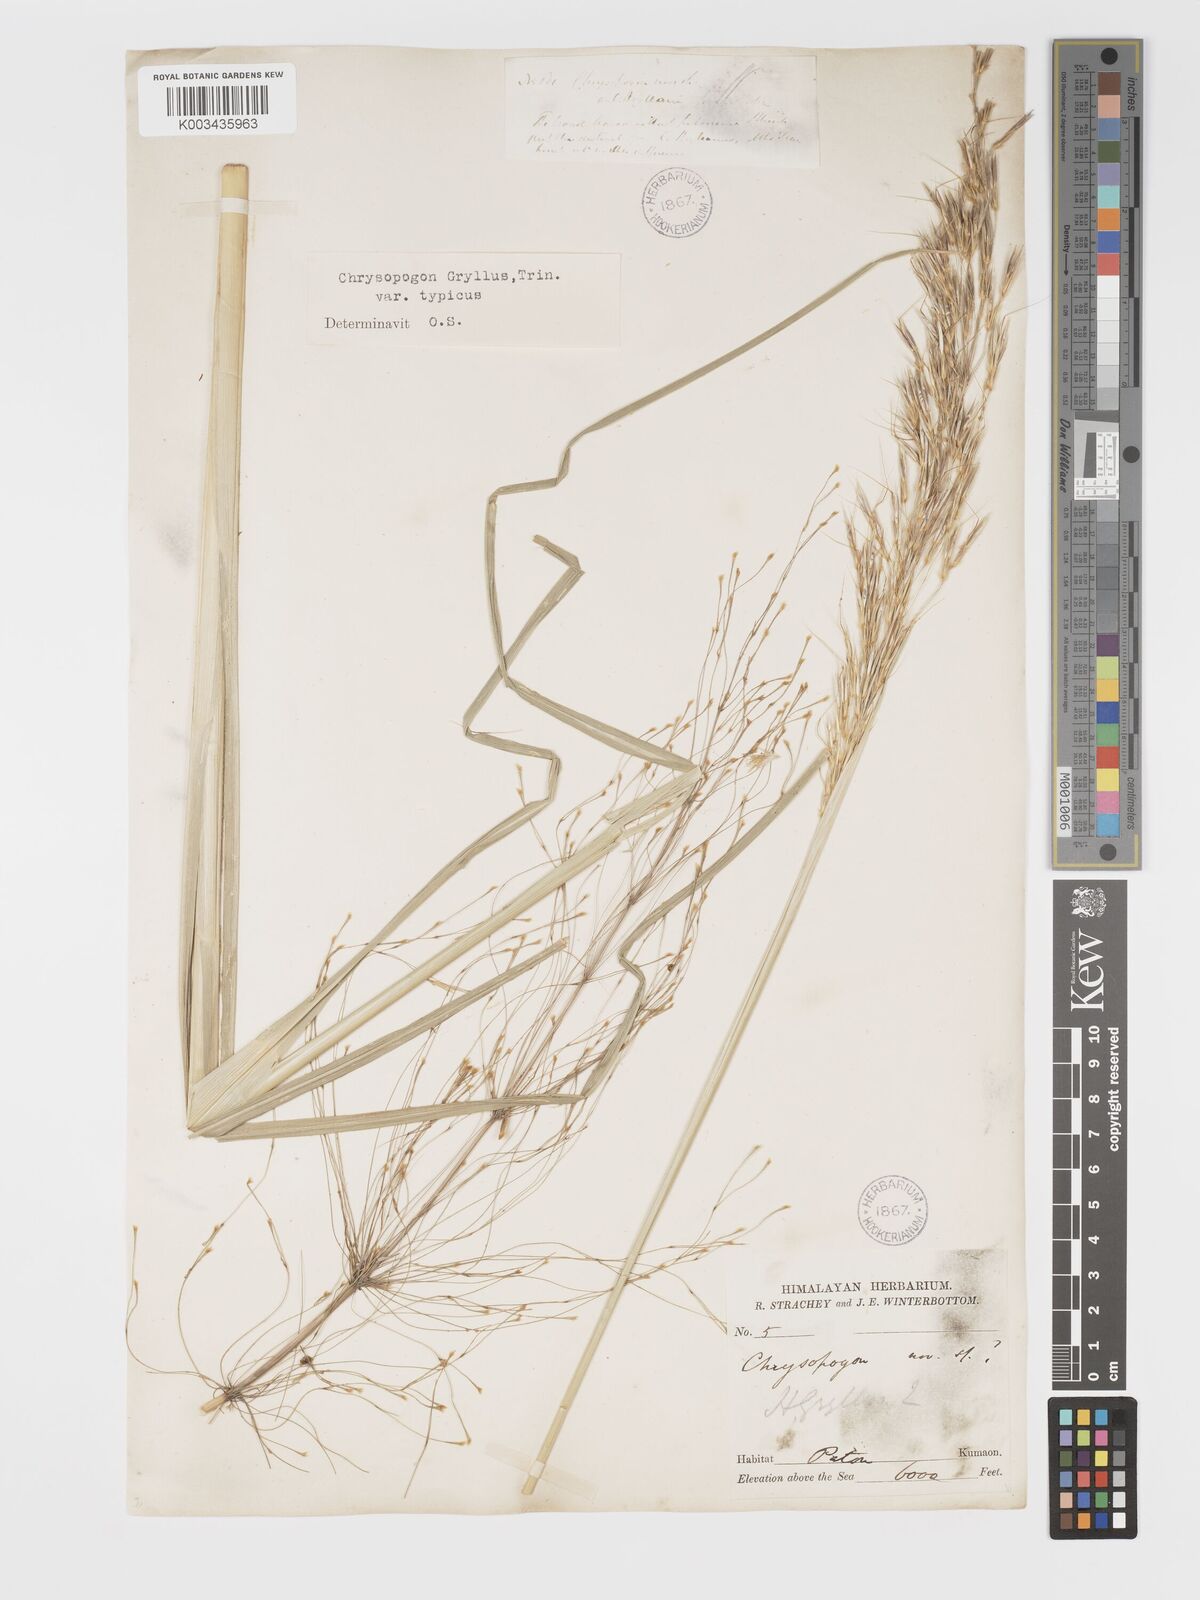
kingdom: Plantae
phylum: Tracheophyta
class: Liliopsida
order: Poales
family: Poaceae
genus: Chrysopogon
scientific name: Chrysopogon gryllus
